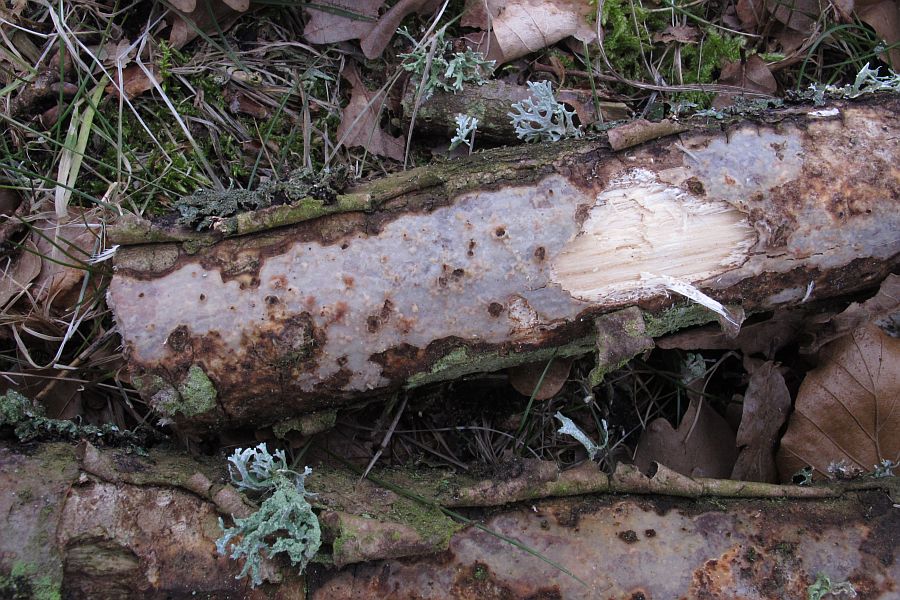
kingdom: Fungi
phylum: Basidiomycota
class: Agaricomycetes
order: Corticiales
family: Vuilleminiaceae
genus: Vuilleminia
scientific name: Vuilleminia comedens
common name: almindelig barksprænger
